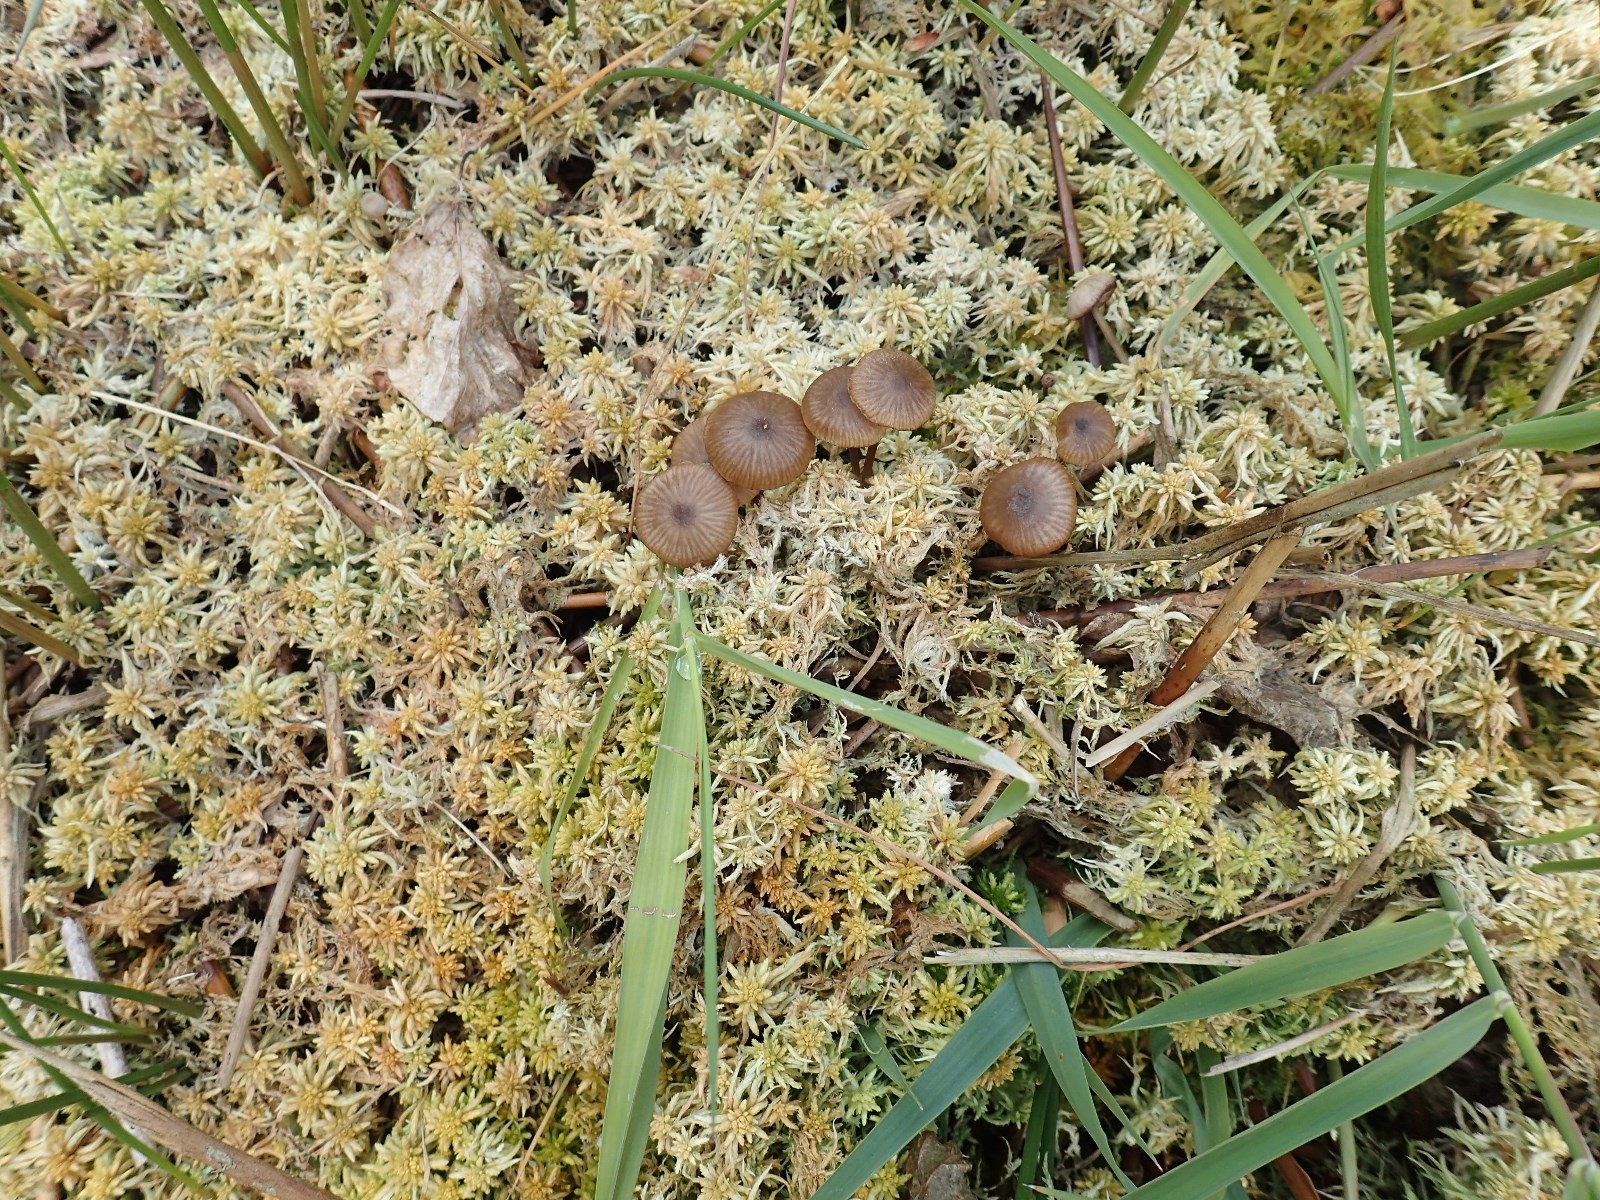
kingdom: Fungi
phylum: Basidiomycota
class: Agaricomycetes
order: Agaricales
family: Lyophyllaceae
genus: Sphagnurus
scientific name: Sphagnurus paluster
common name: tørvemos-gråblad
